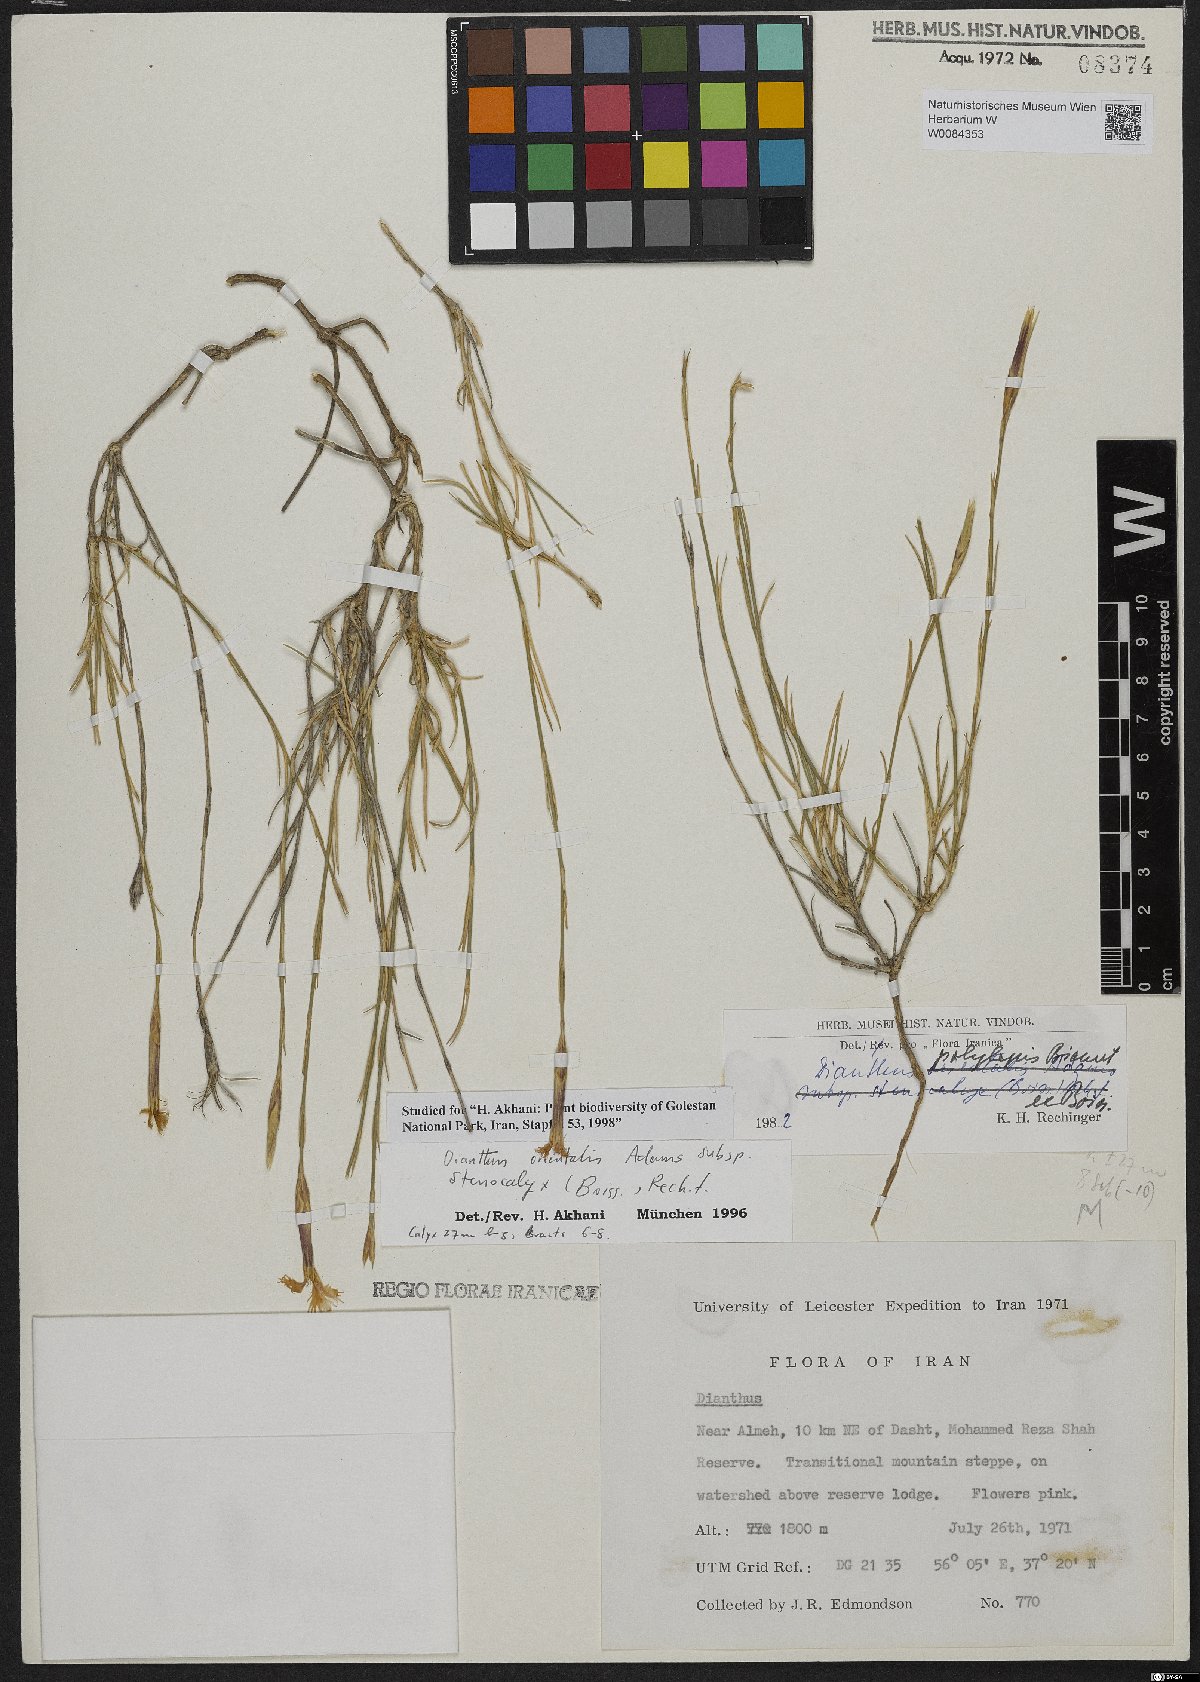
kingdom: Plantae
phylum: Tracheophyta
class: Magnoliopsida
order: Caryophyllales
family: Caryophyllaceae
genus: Dianthus
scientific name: Dianthus orientalis
